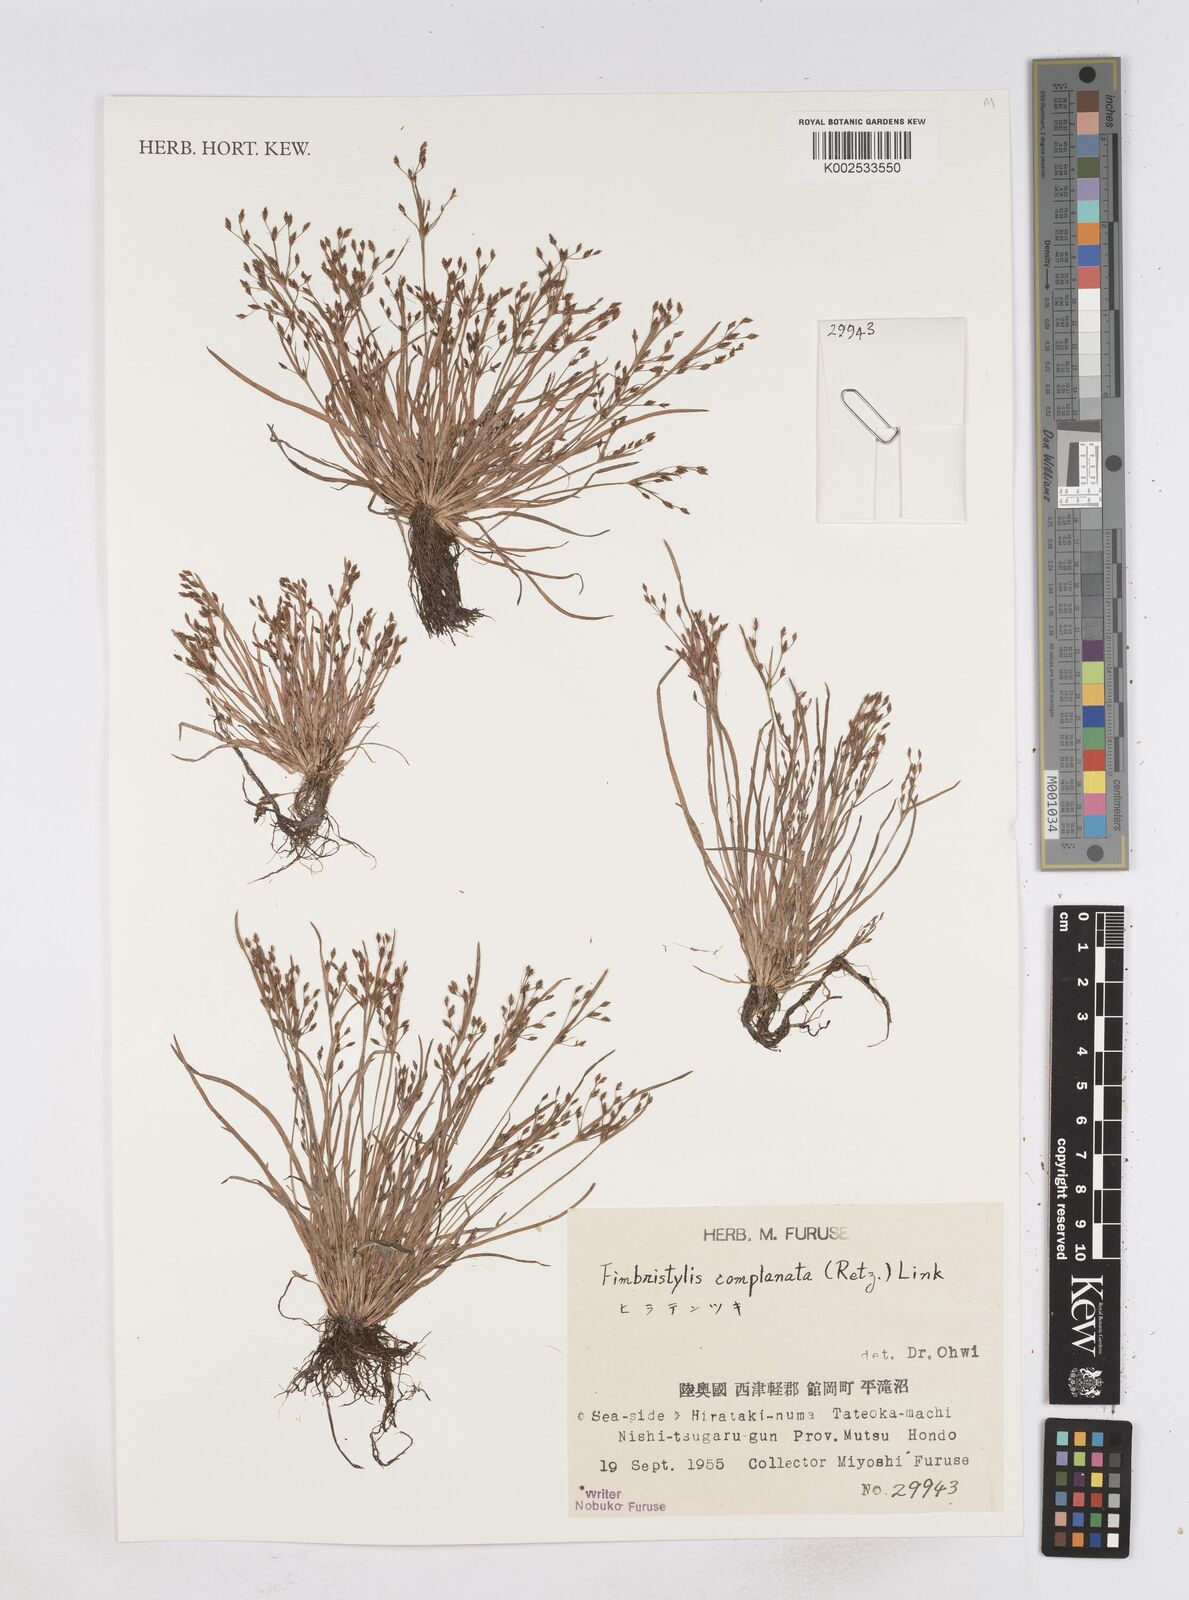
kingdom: Plantae
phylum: Tracheophyta
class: Liliopsida
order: Poales
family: Cyperaceae
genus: Fimbristylis
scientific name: Fimbristylis complanata
